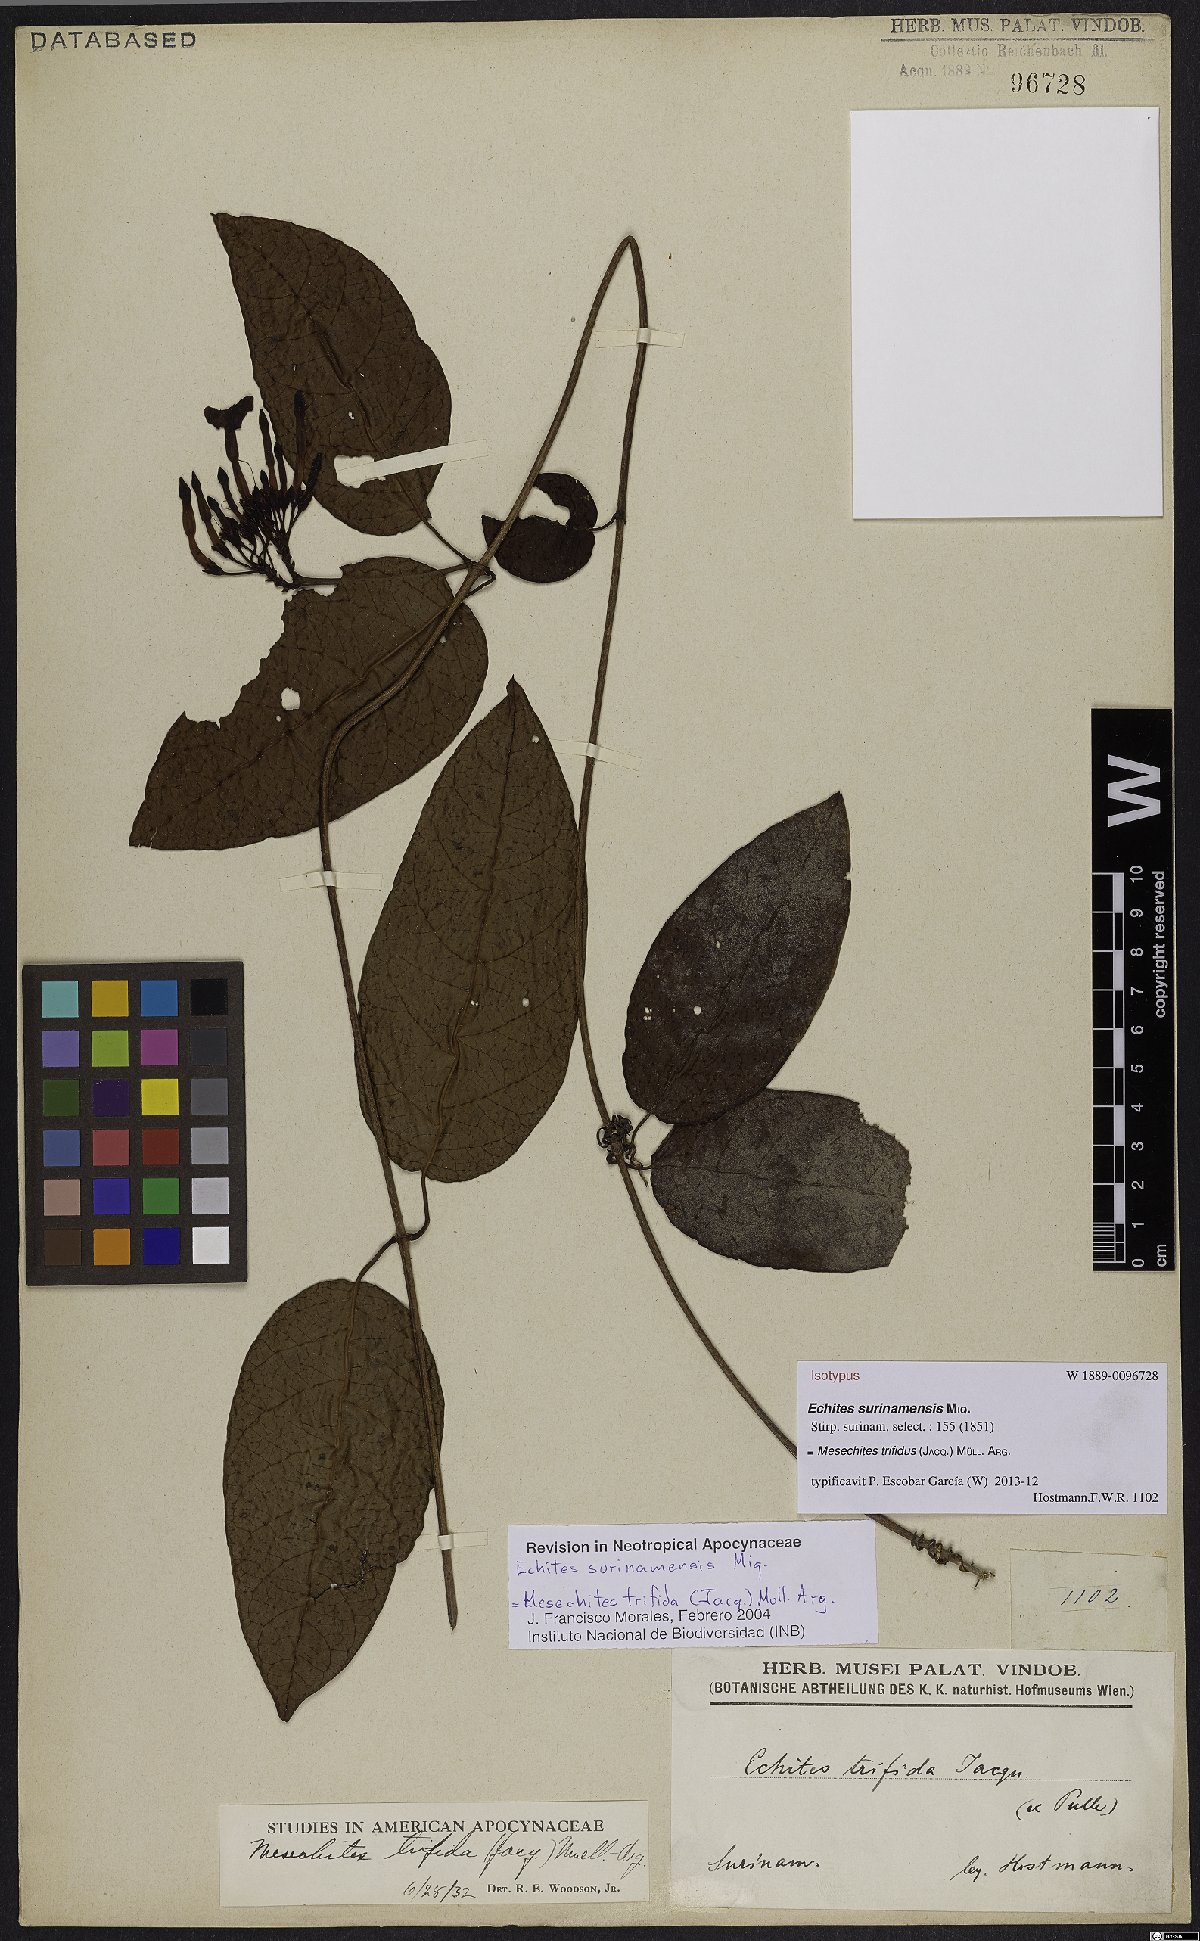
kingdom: Plantae
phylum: Tracheophyta
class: Magnoliopsida
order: Gentianales
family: Apocynaceae
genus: Mesechites
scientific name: Mesechites trifidus
